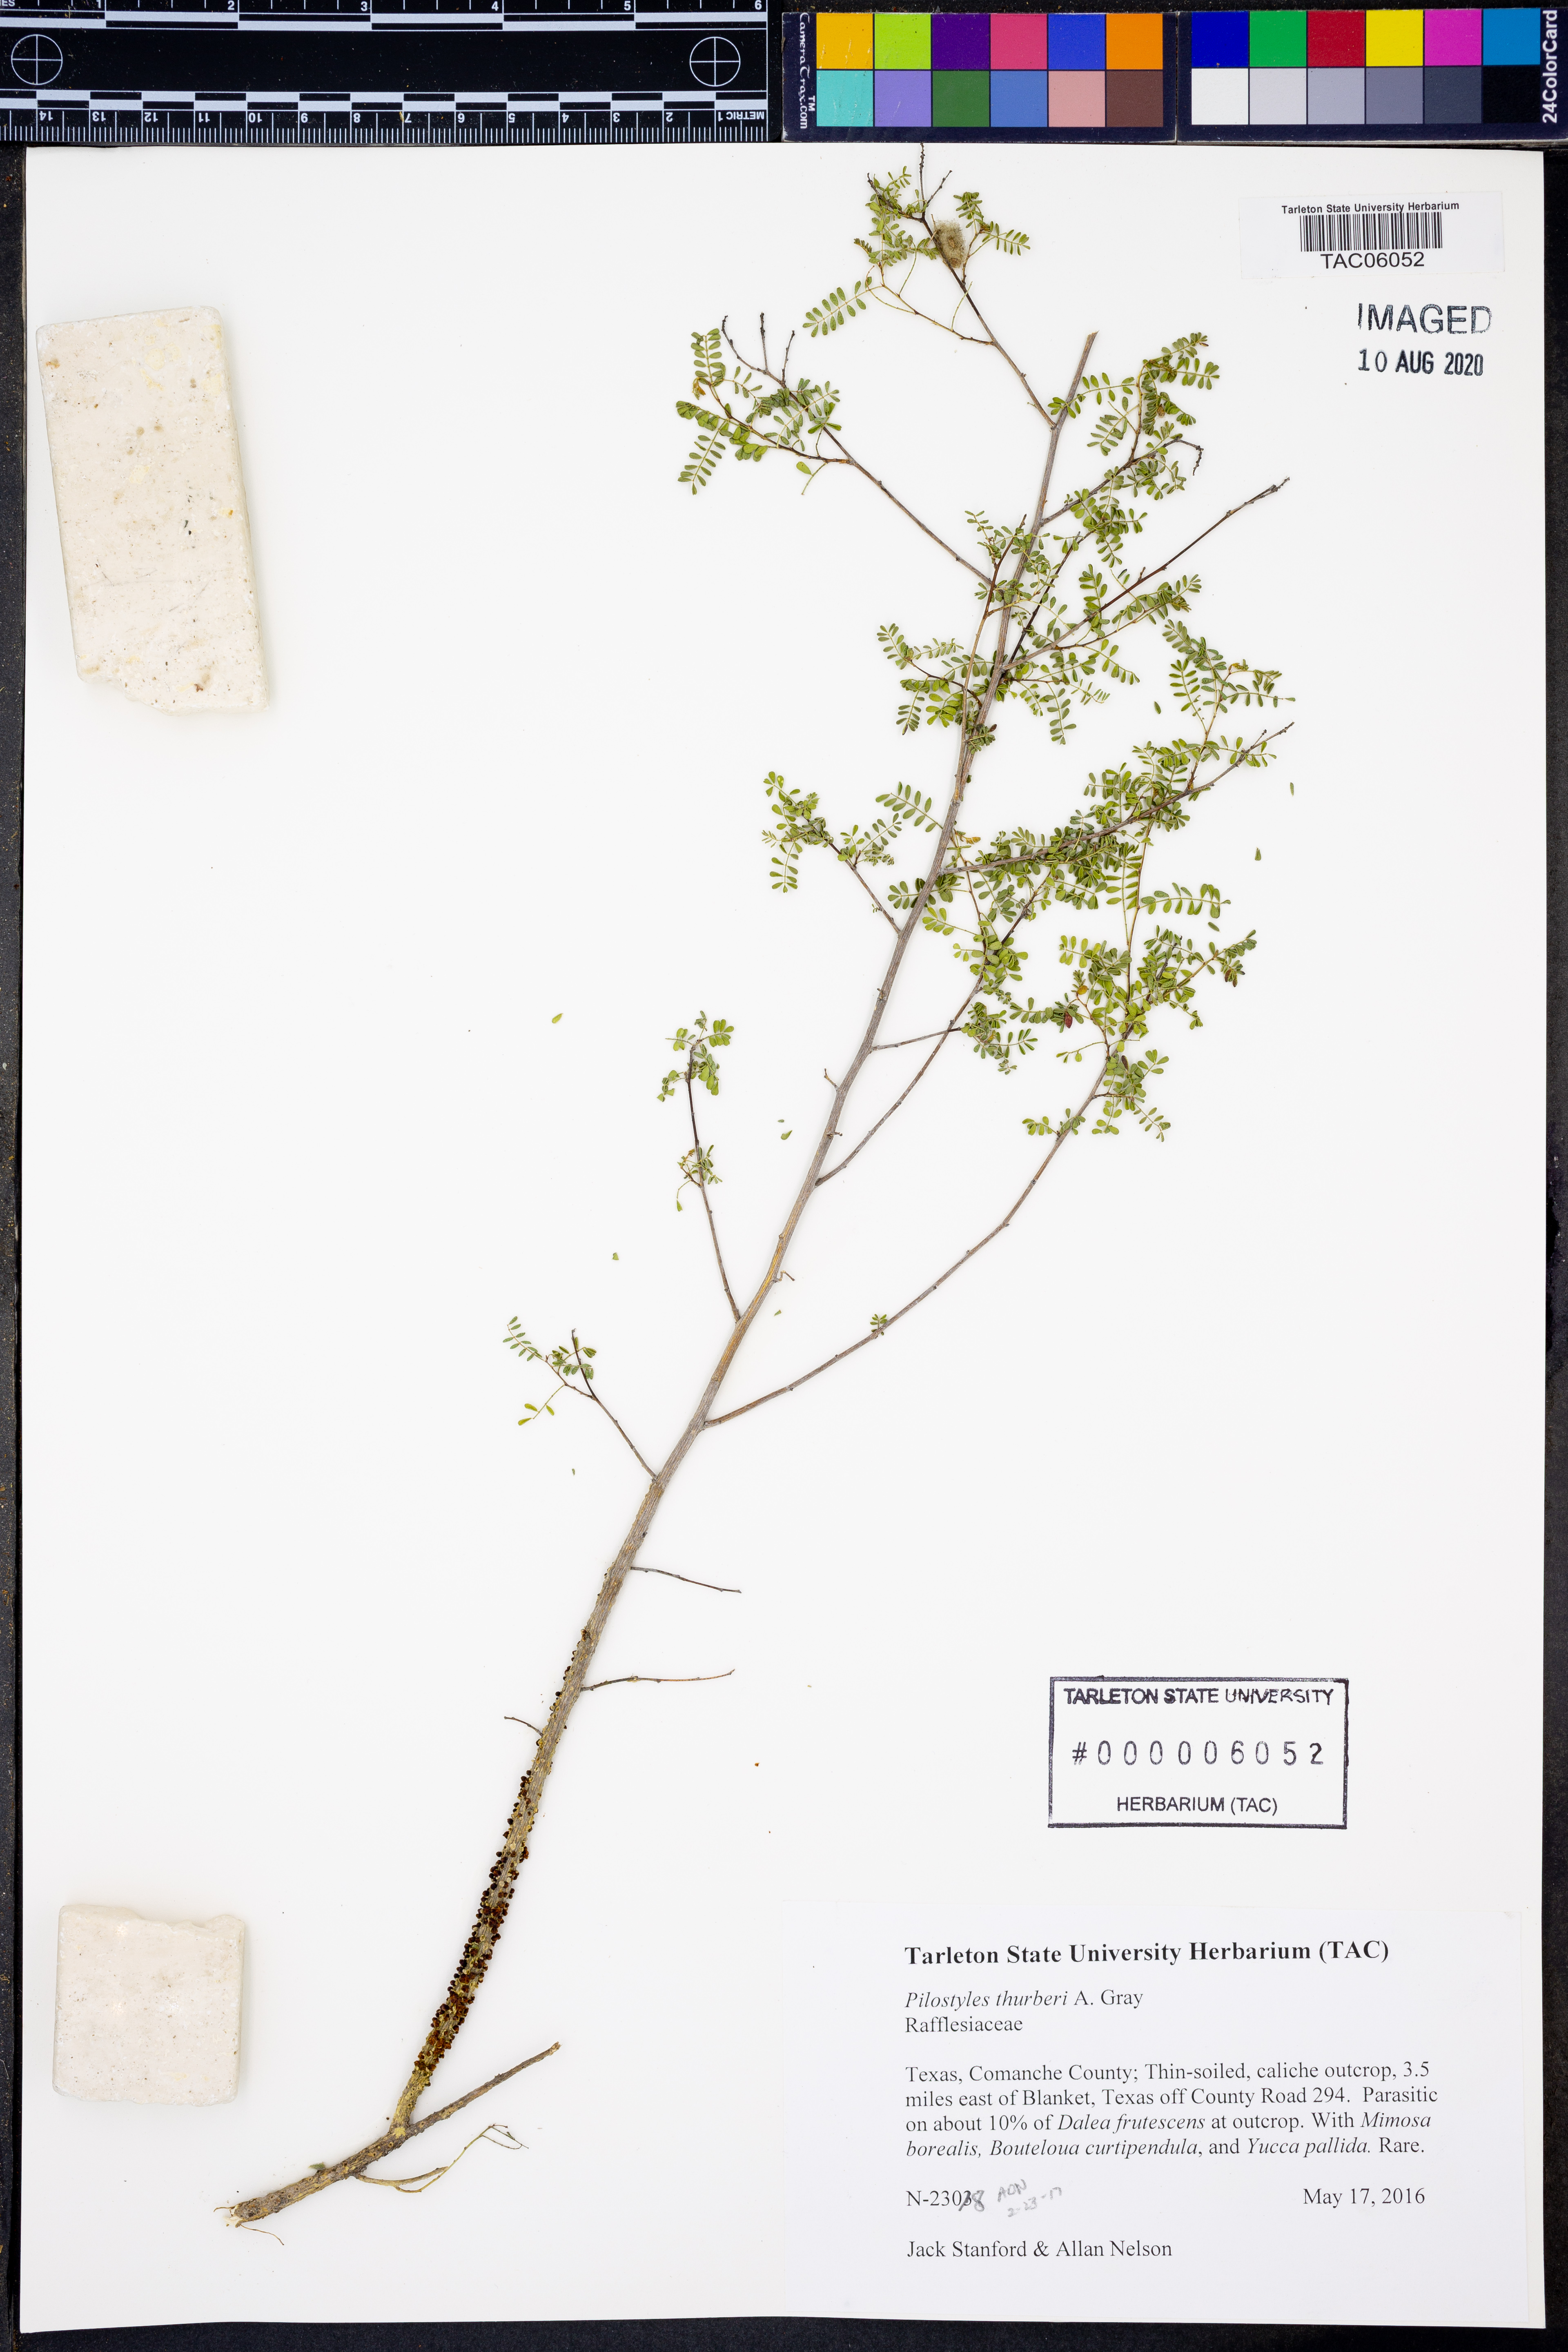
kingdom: Plantae
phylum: Tracheophyta
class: Magnoliopsida
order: Cucurbitales
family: Apodanthaceae
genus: Pilostyles
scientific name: Pilostyles thurberi
